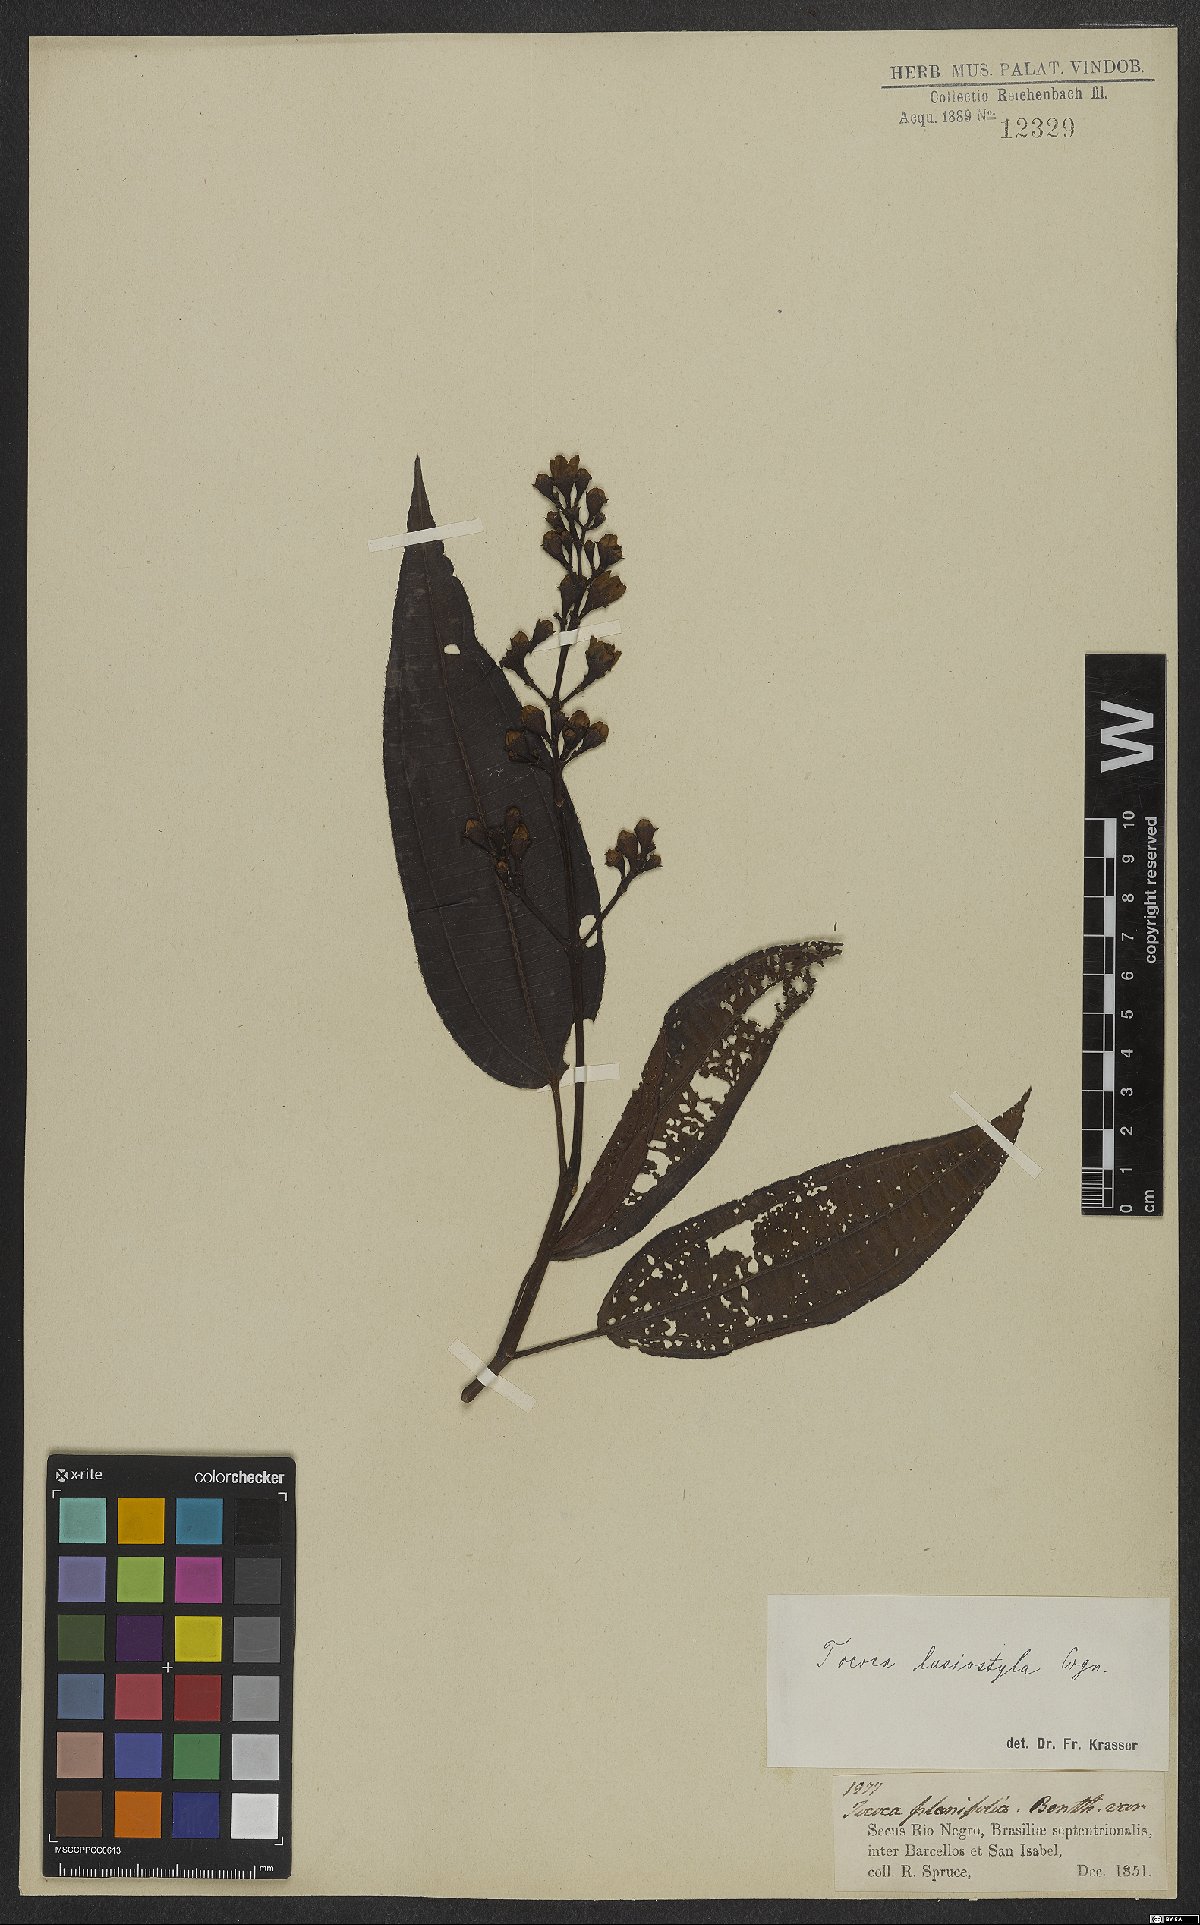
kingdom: Plantae
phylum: Tracheophyta
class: Magnoliopsida
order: Myrtales
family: Melastomataceae
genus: Miconia
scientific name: Miconia subciliata
